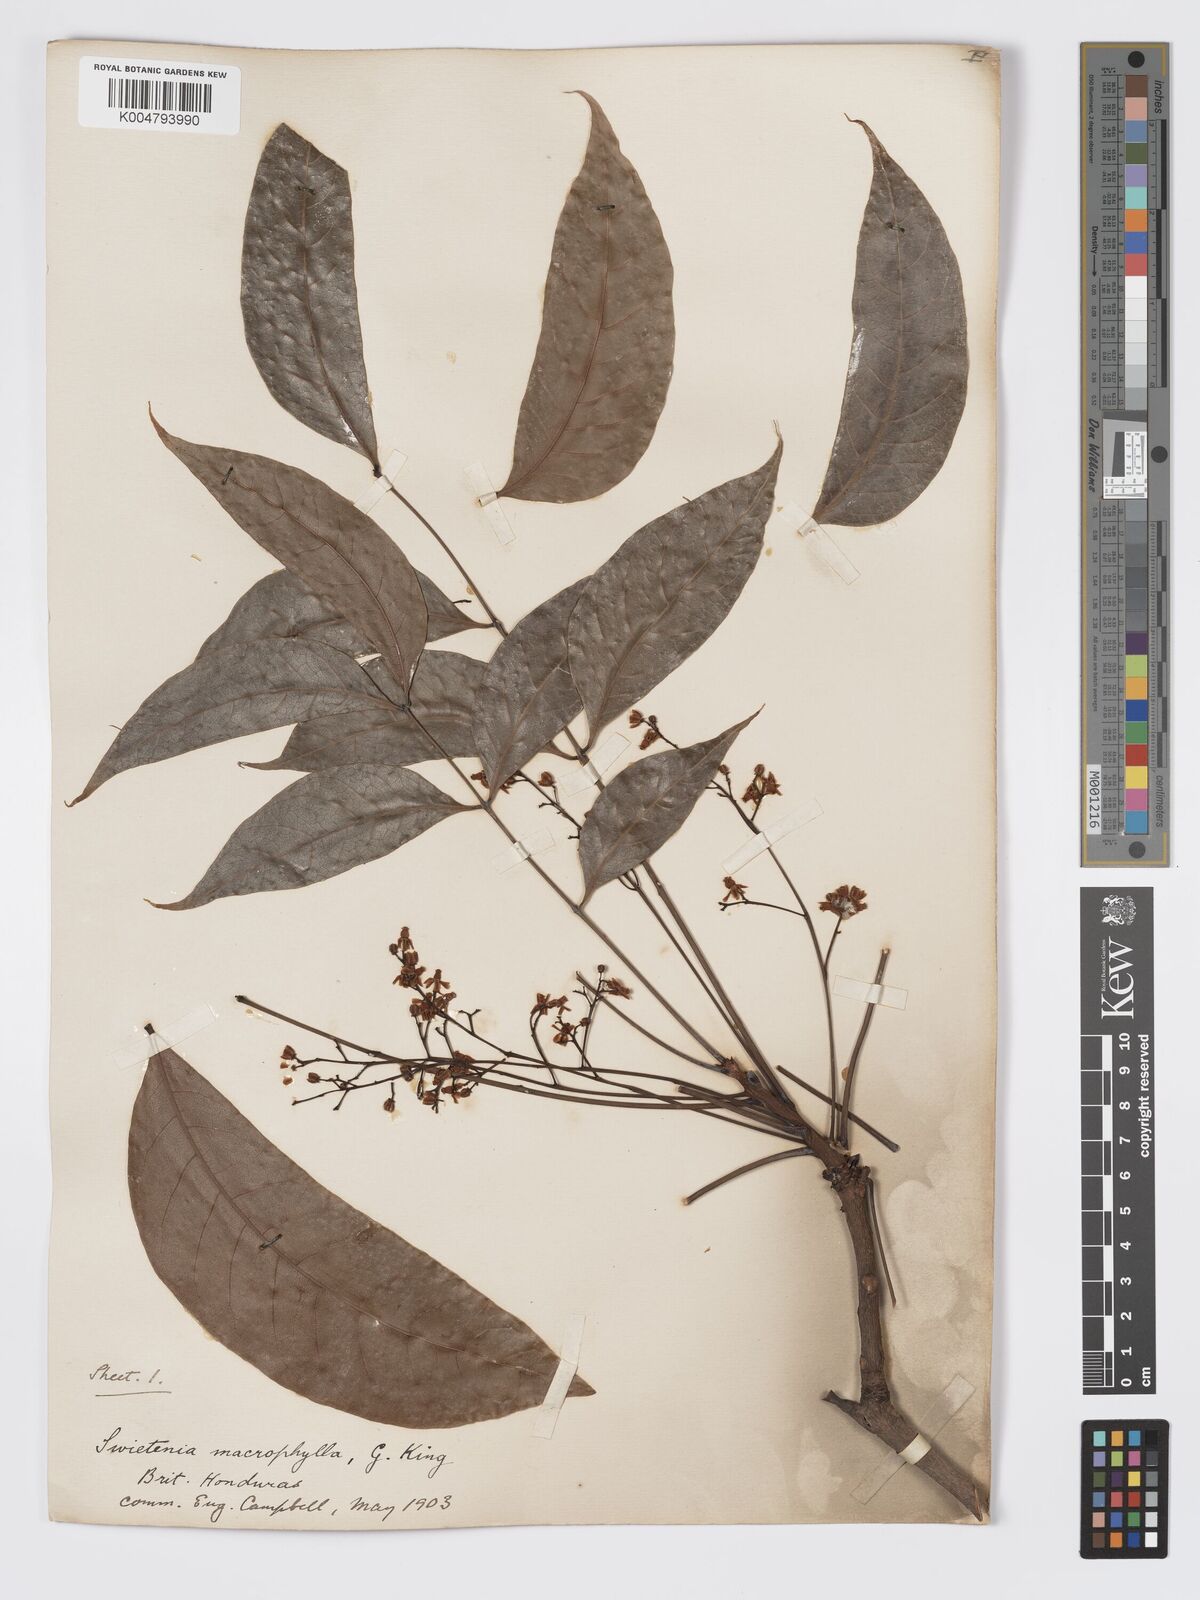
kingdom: Plantae
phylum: Tracheophyta
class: Magnoliopsida
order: Sapindales
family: Meliaceae
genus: Swietenia
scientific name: Swietenia macrophylla
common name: Honduras mahogany
